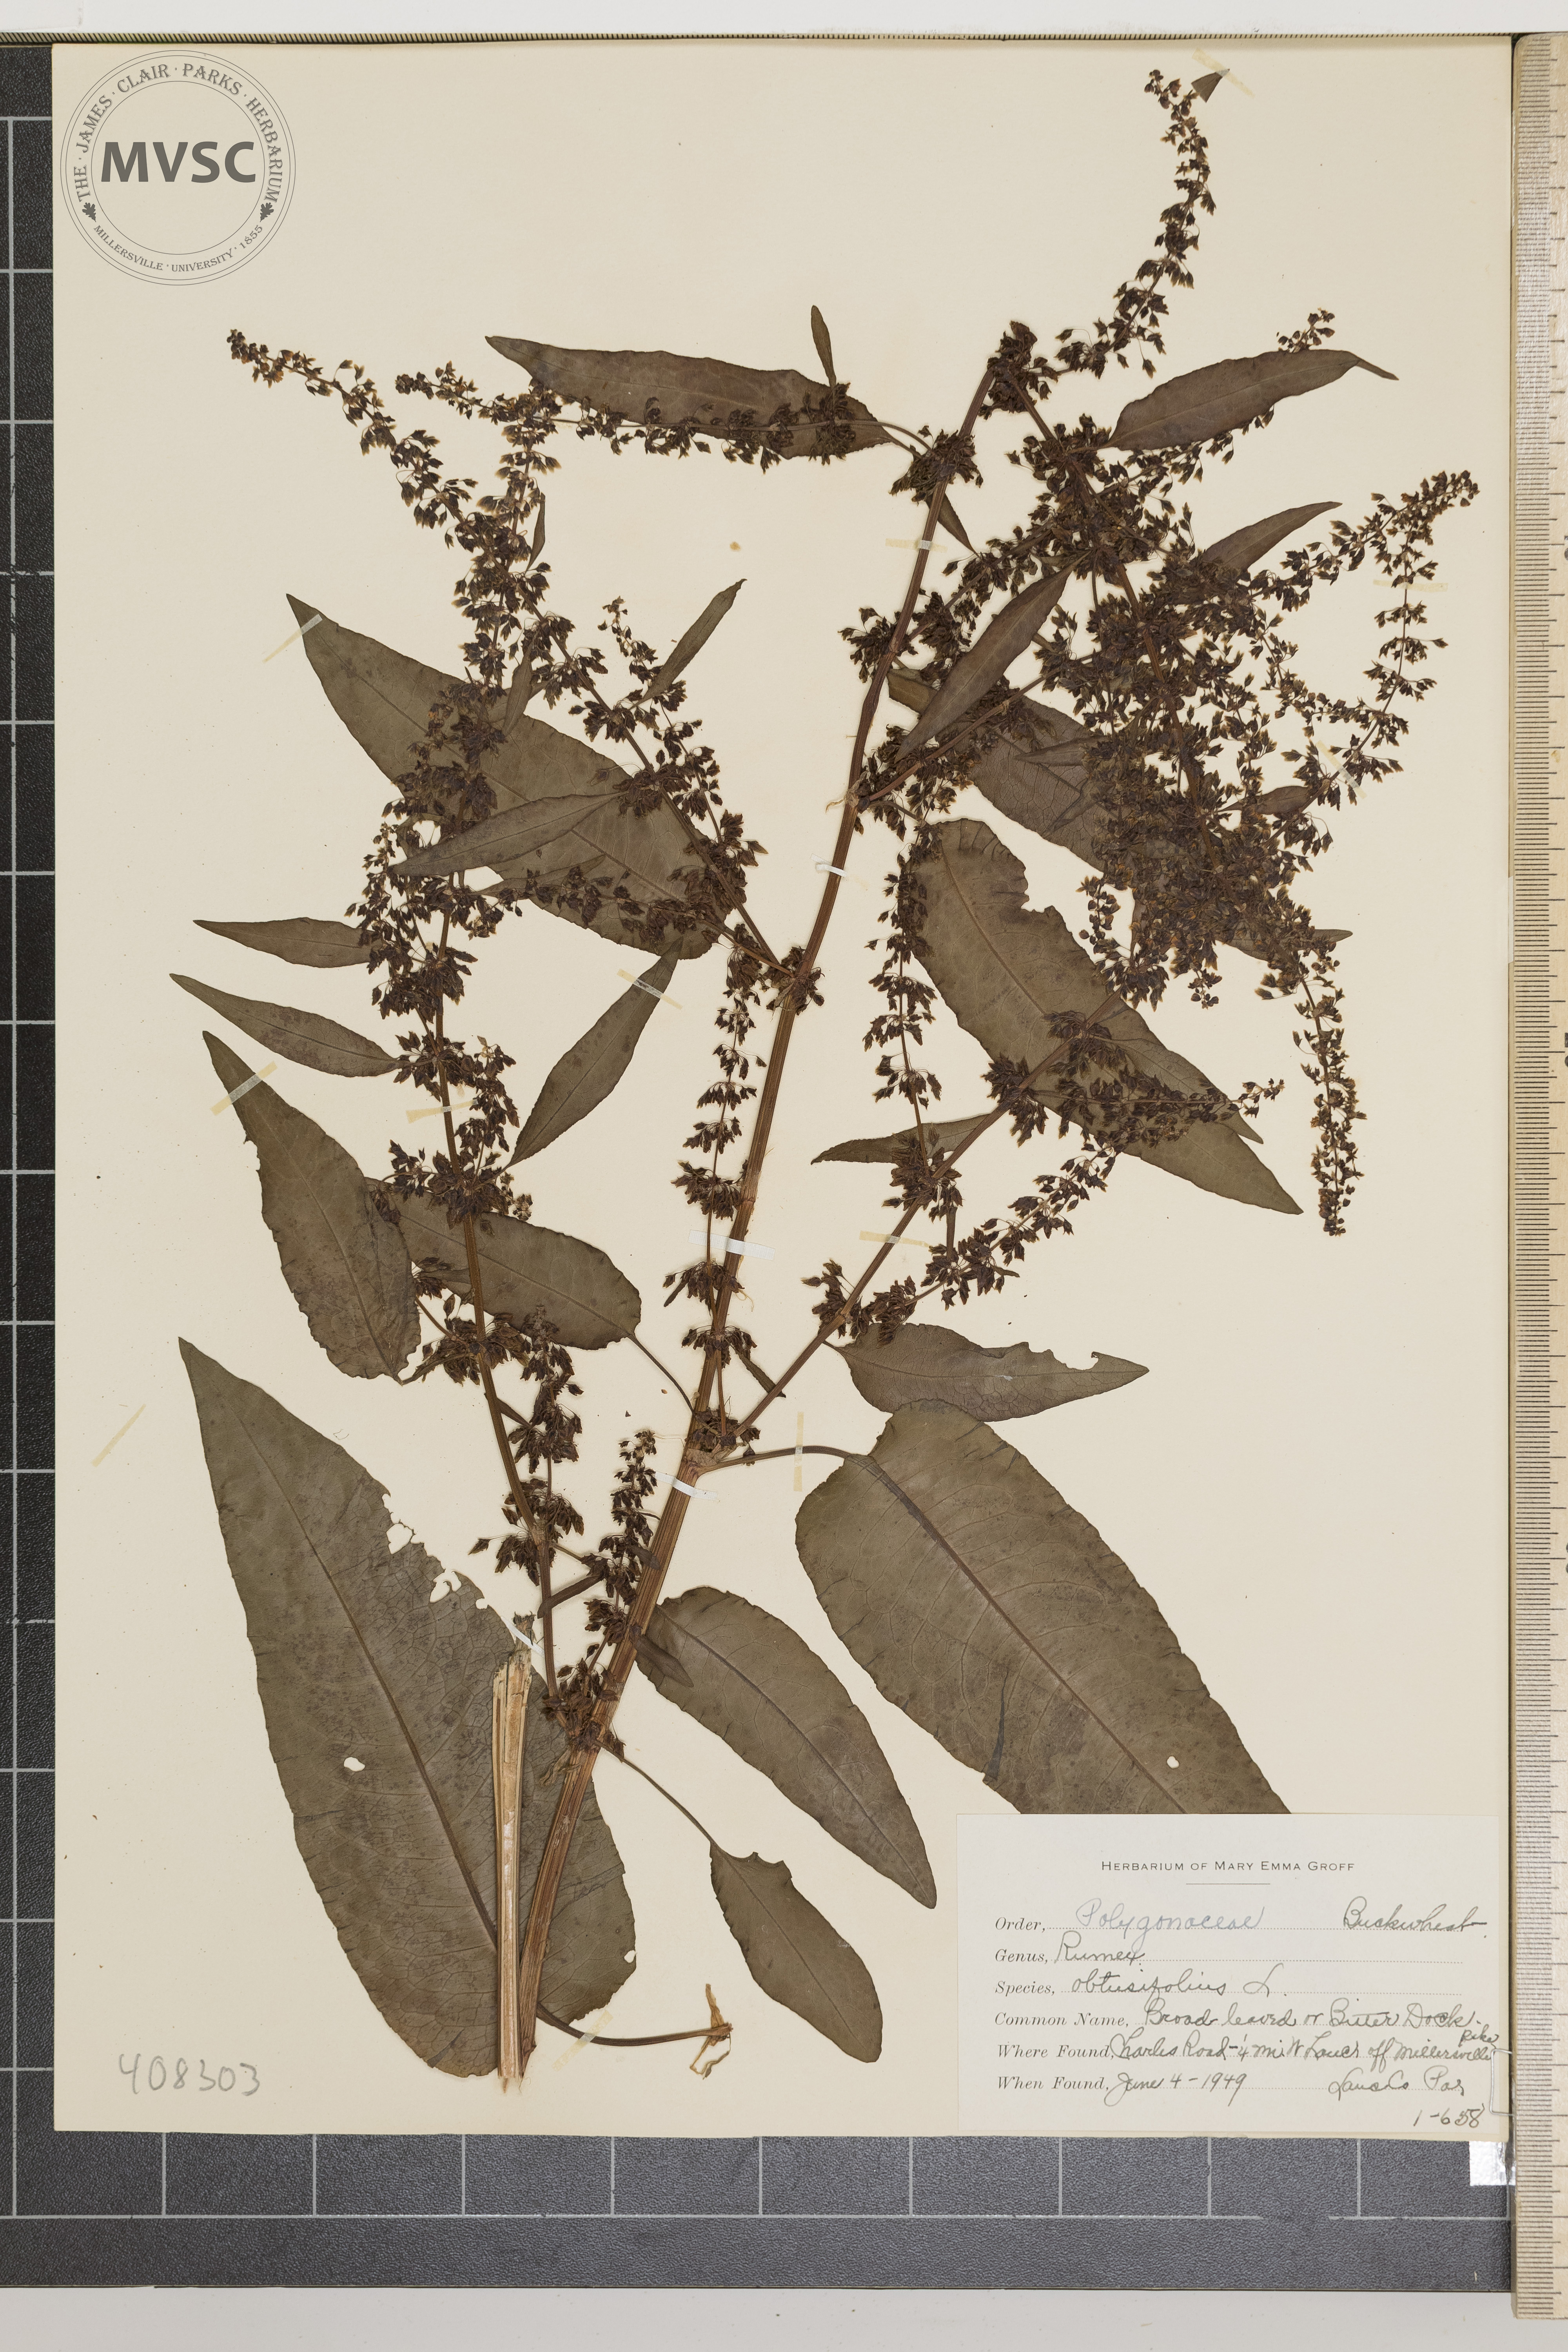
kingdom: Plantae
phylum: Tracheophyta
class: Magnoliopsida
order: Caryophyllales
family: Polygonaceae
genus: Rumex
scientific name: Rumex obtusifolius
